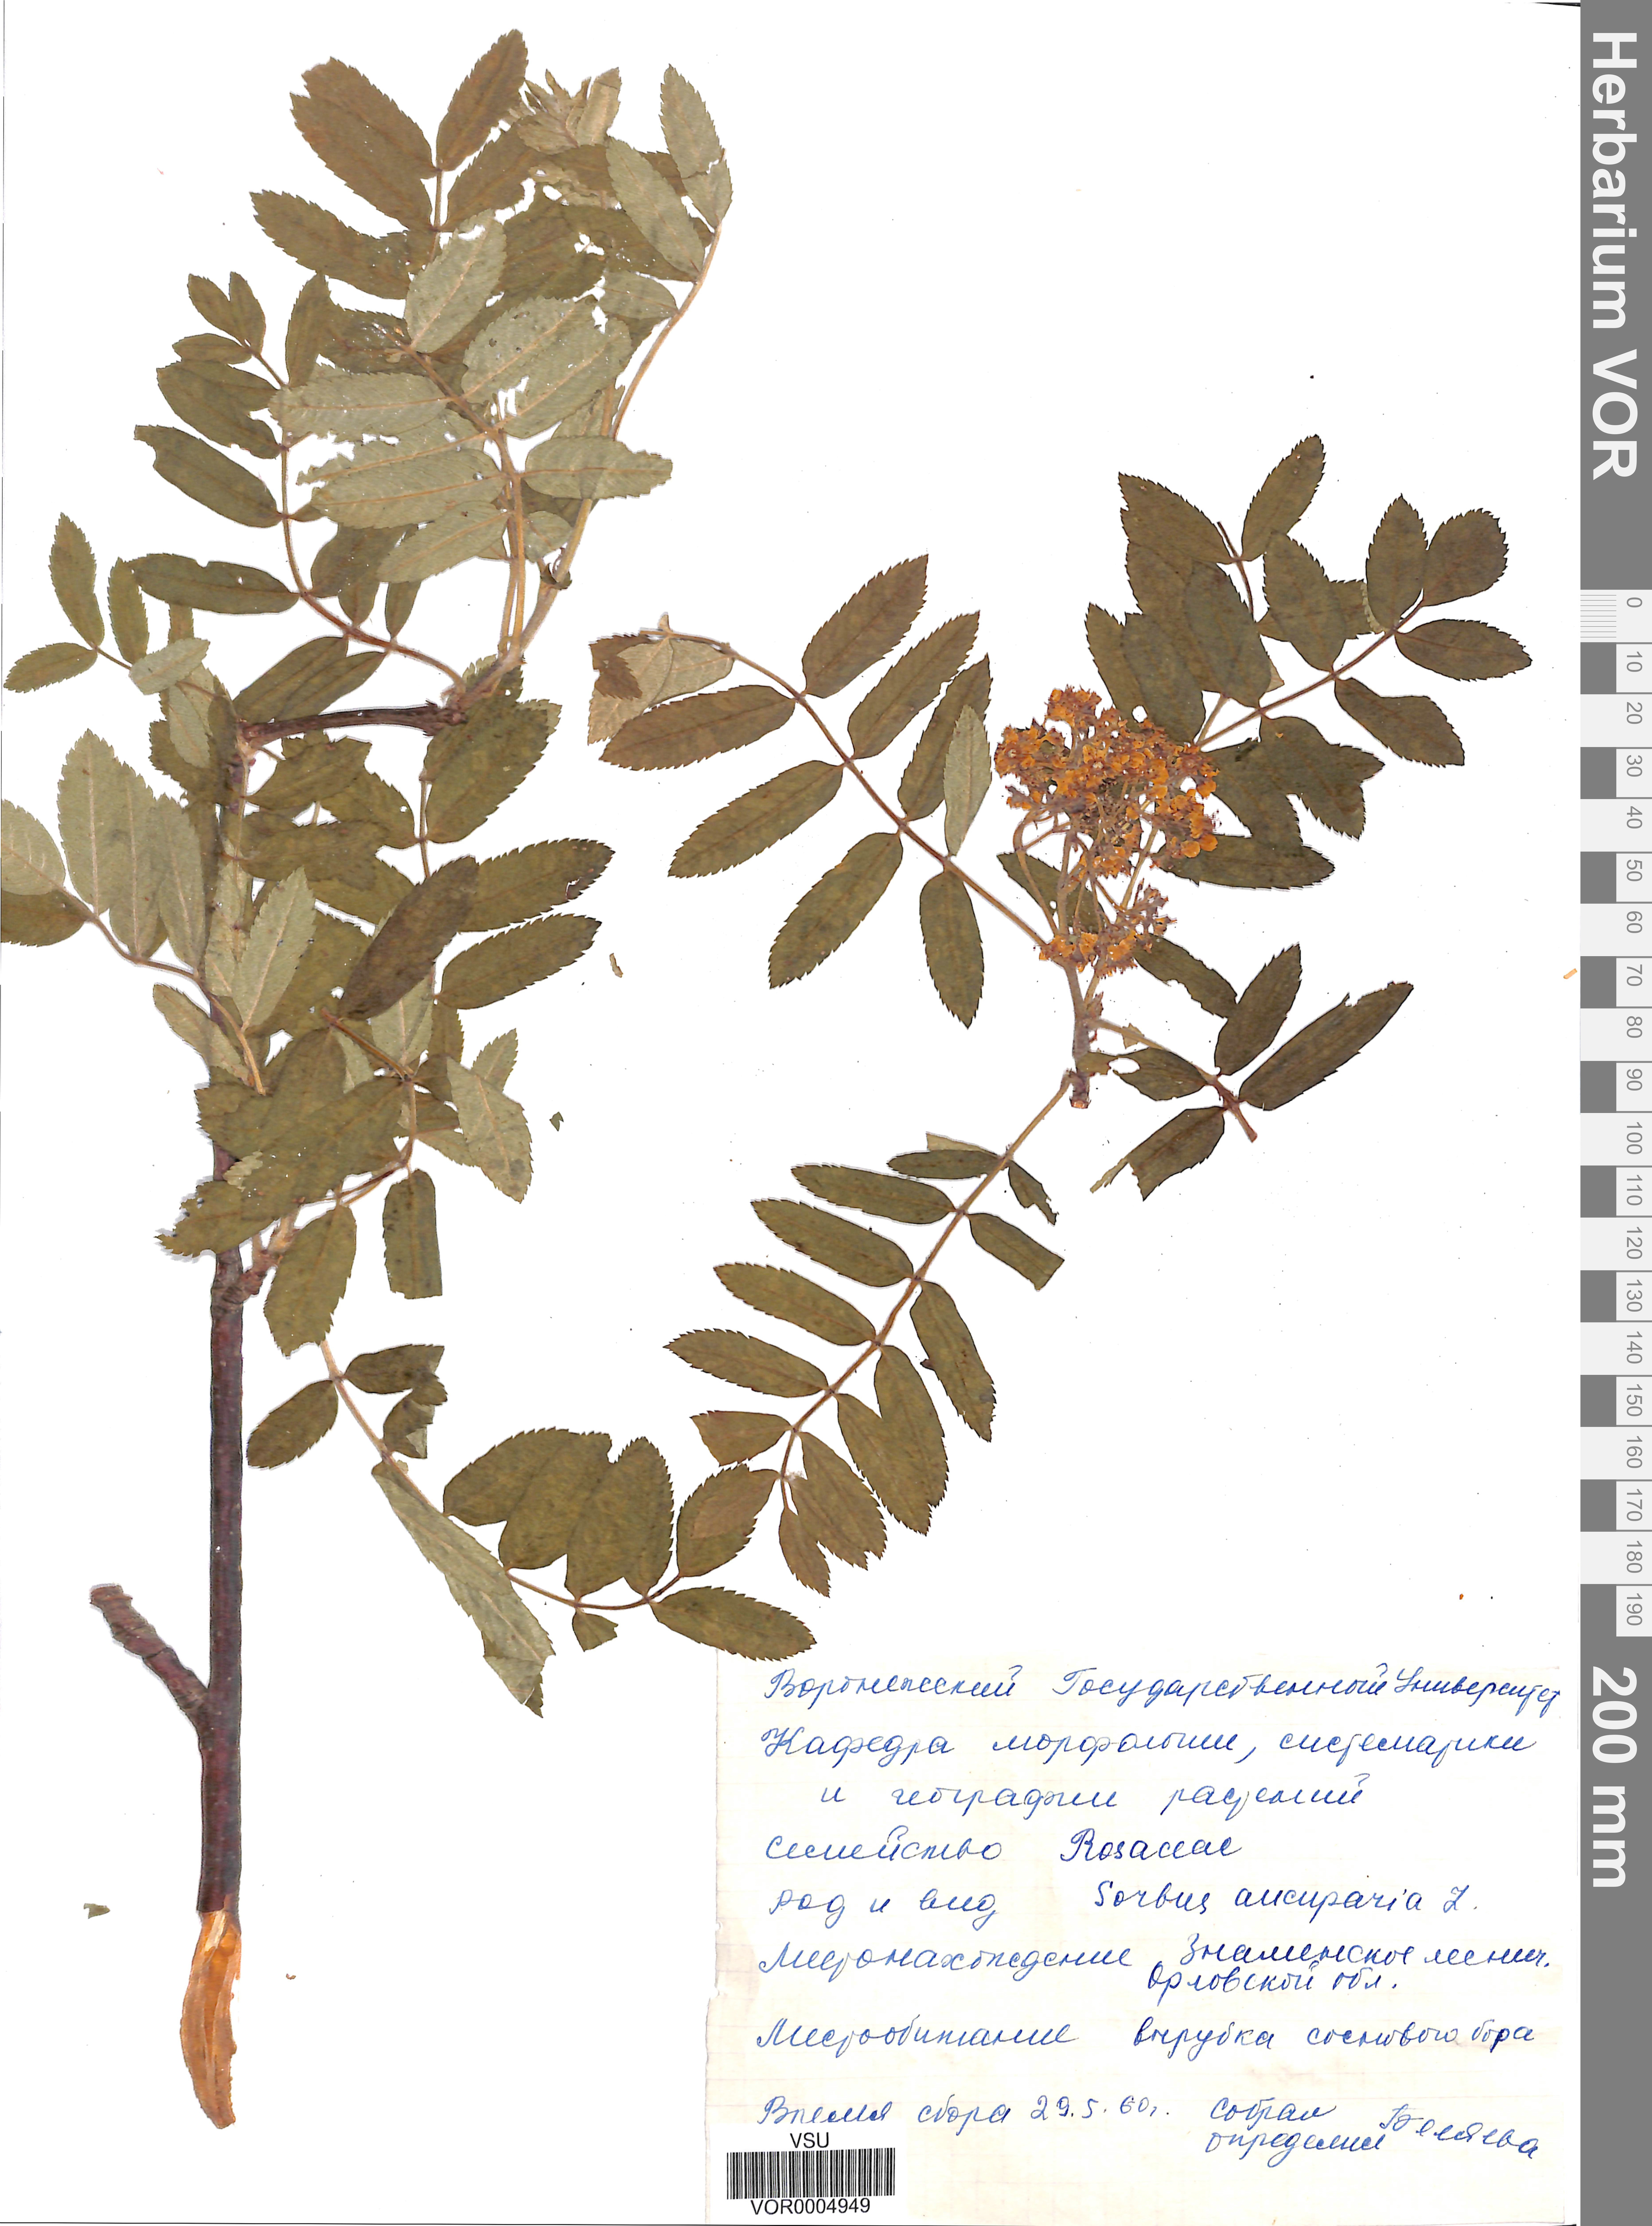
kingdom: Plantae
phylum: Tracheophyta
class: Magnoliopsida
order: Rosales
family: Rosaceae
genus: Sorbus
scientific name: Sorbus aucuparia
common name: Rowan
